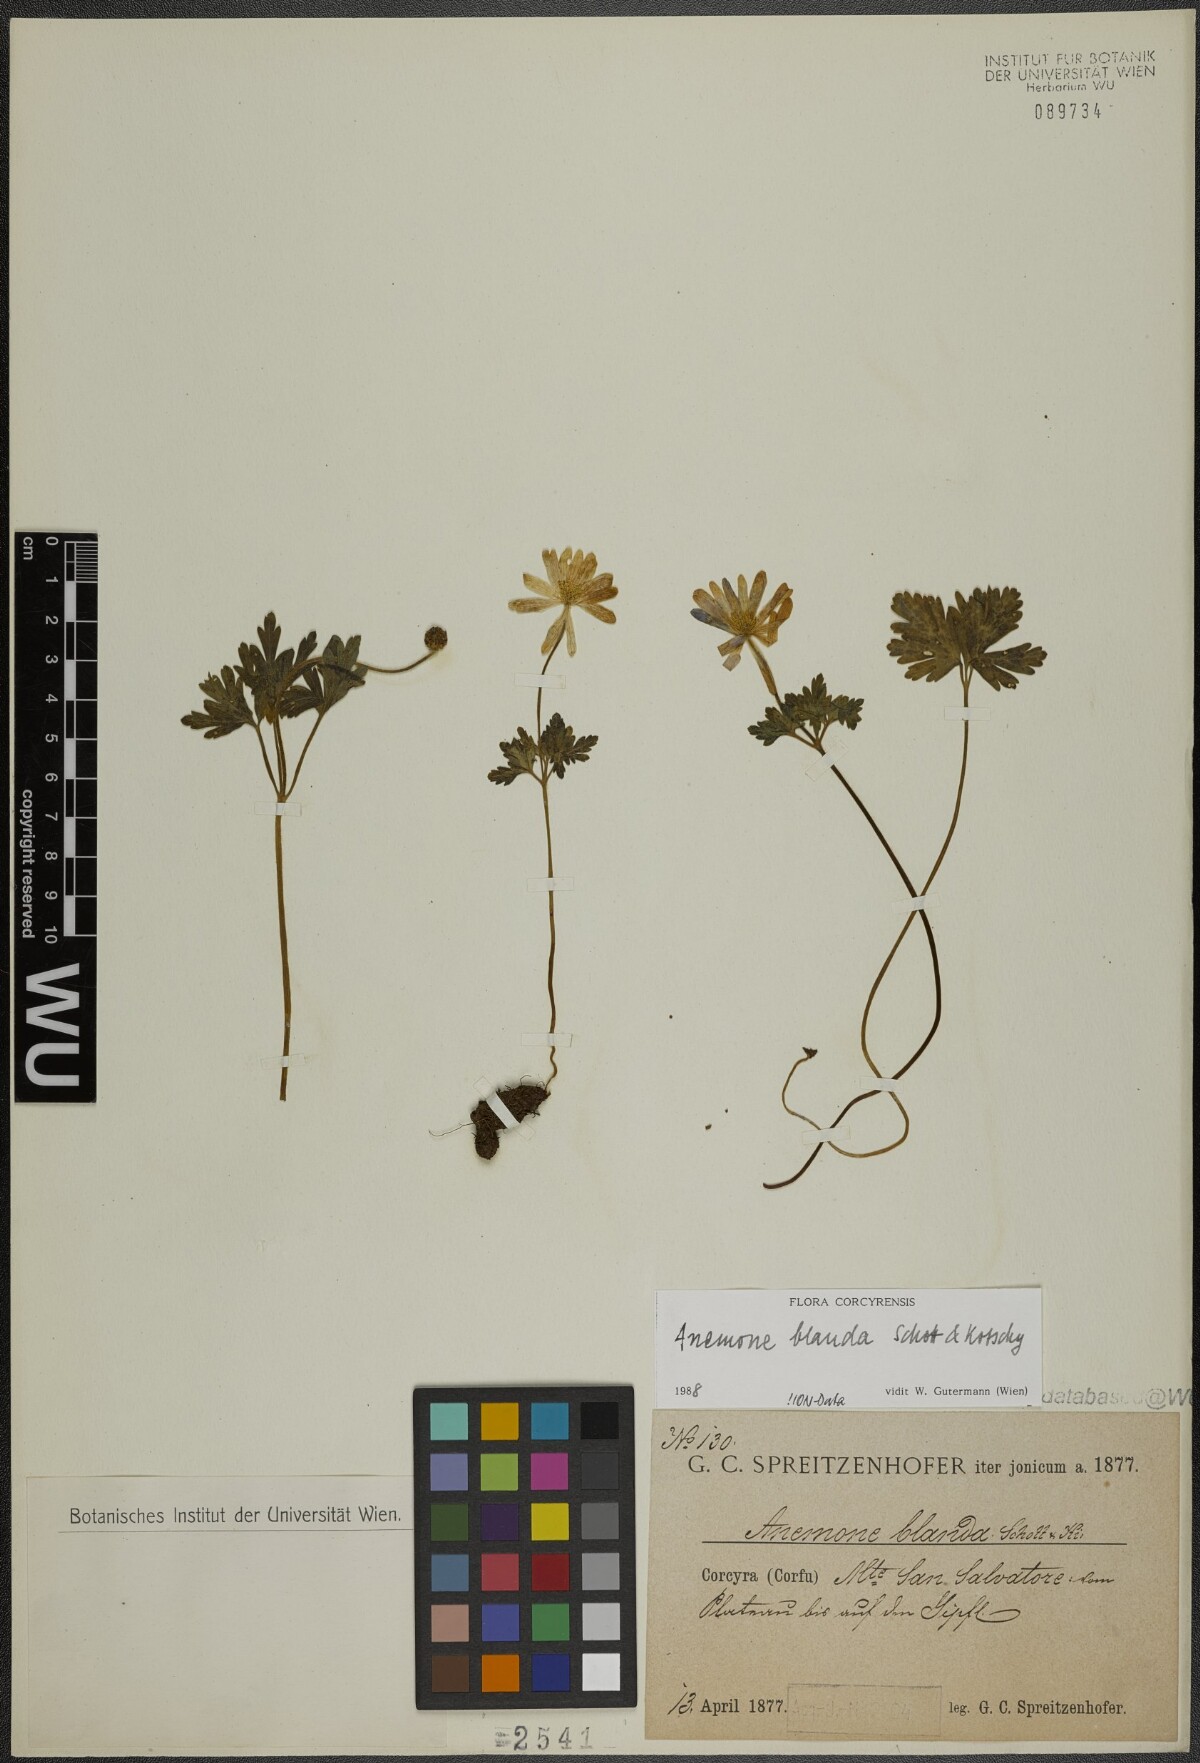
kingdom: Plantae
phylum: Tracheophyta
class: Magnoliopsida
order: Ranunculales
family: Ranunculaceae
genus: Anemone
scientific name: Anemone blanda
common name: Balkan anemone
